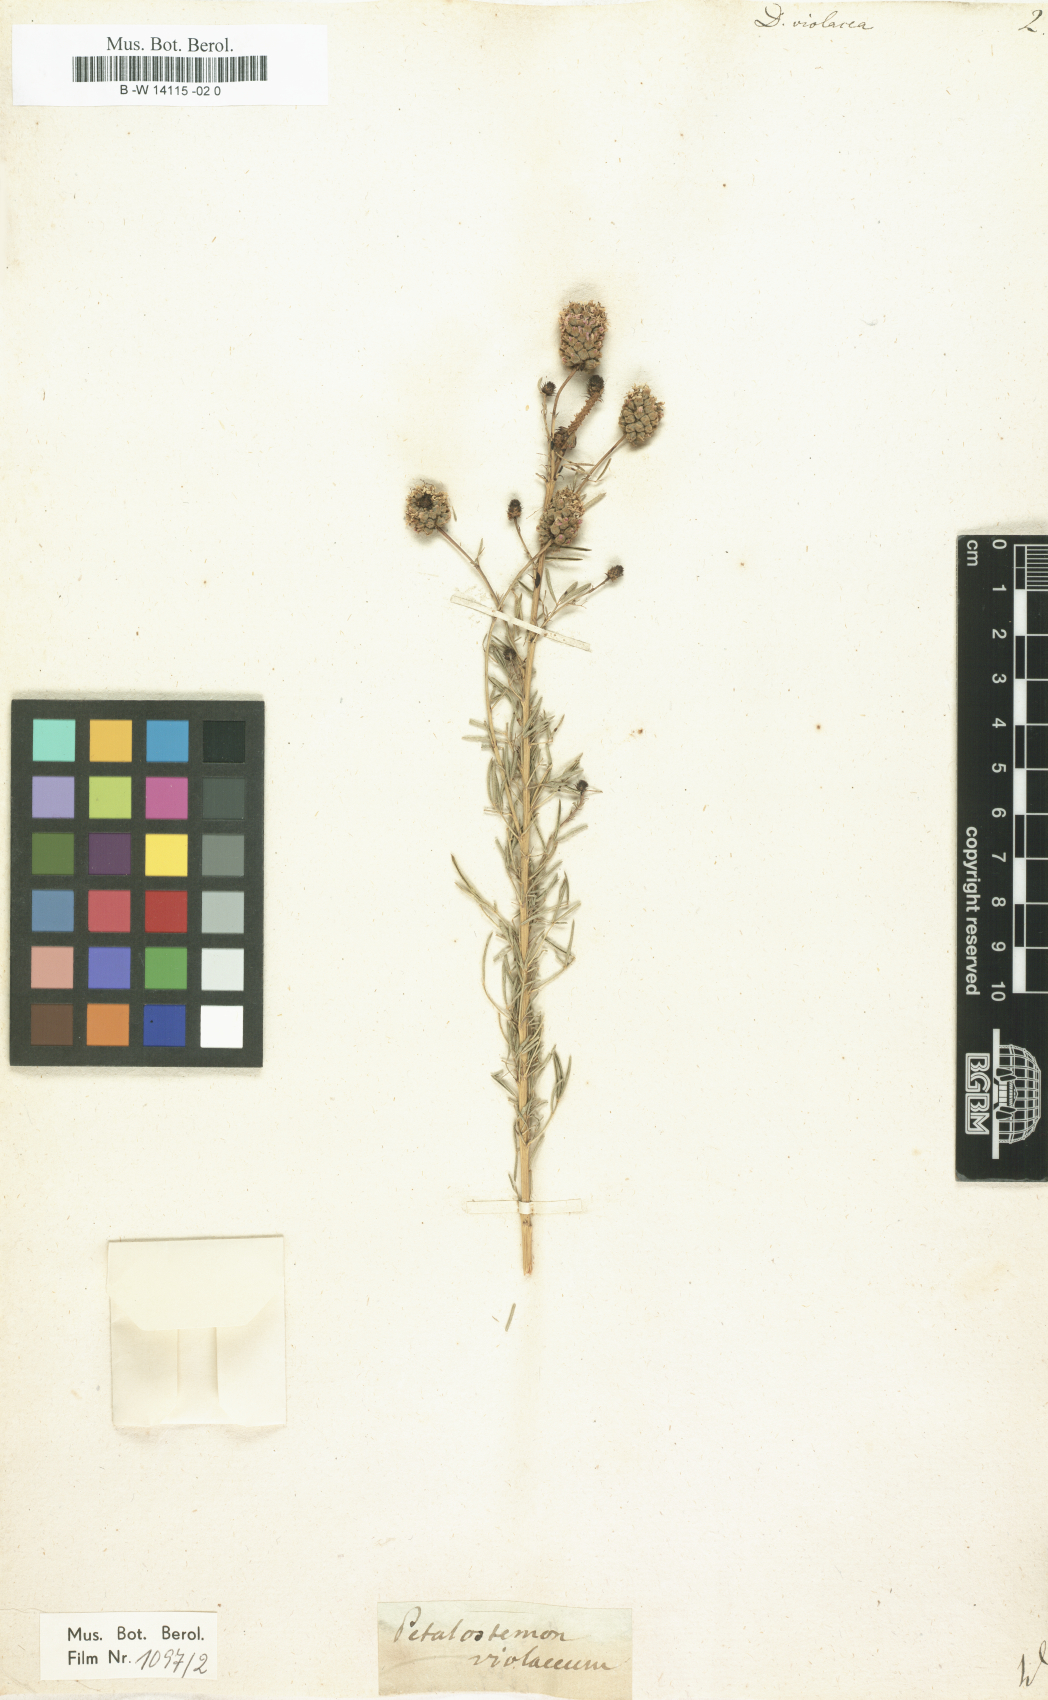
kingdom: Plantae
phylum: Tracheophyta
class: Magnoliopsida
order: Fabales
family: Fabaceae
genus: Dalea
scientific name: Dalea purpurea
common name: Purple prairie-clover
